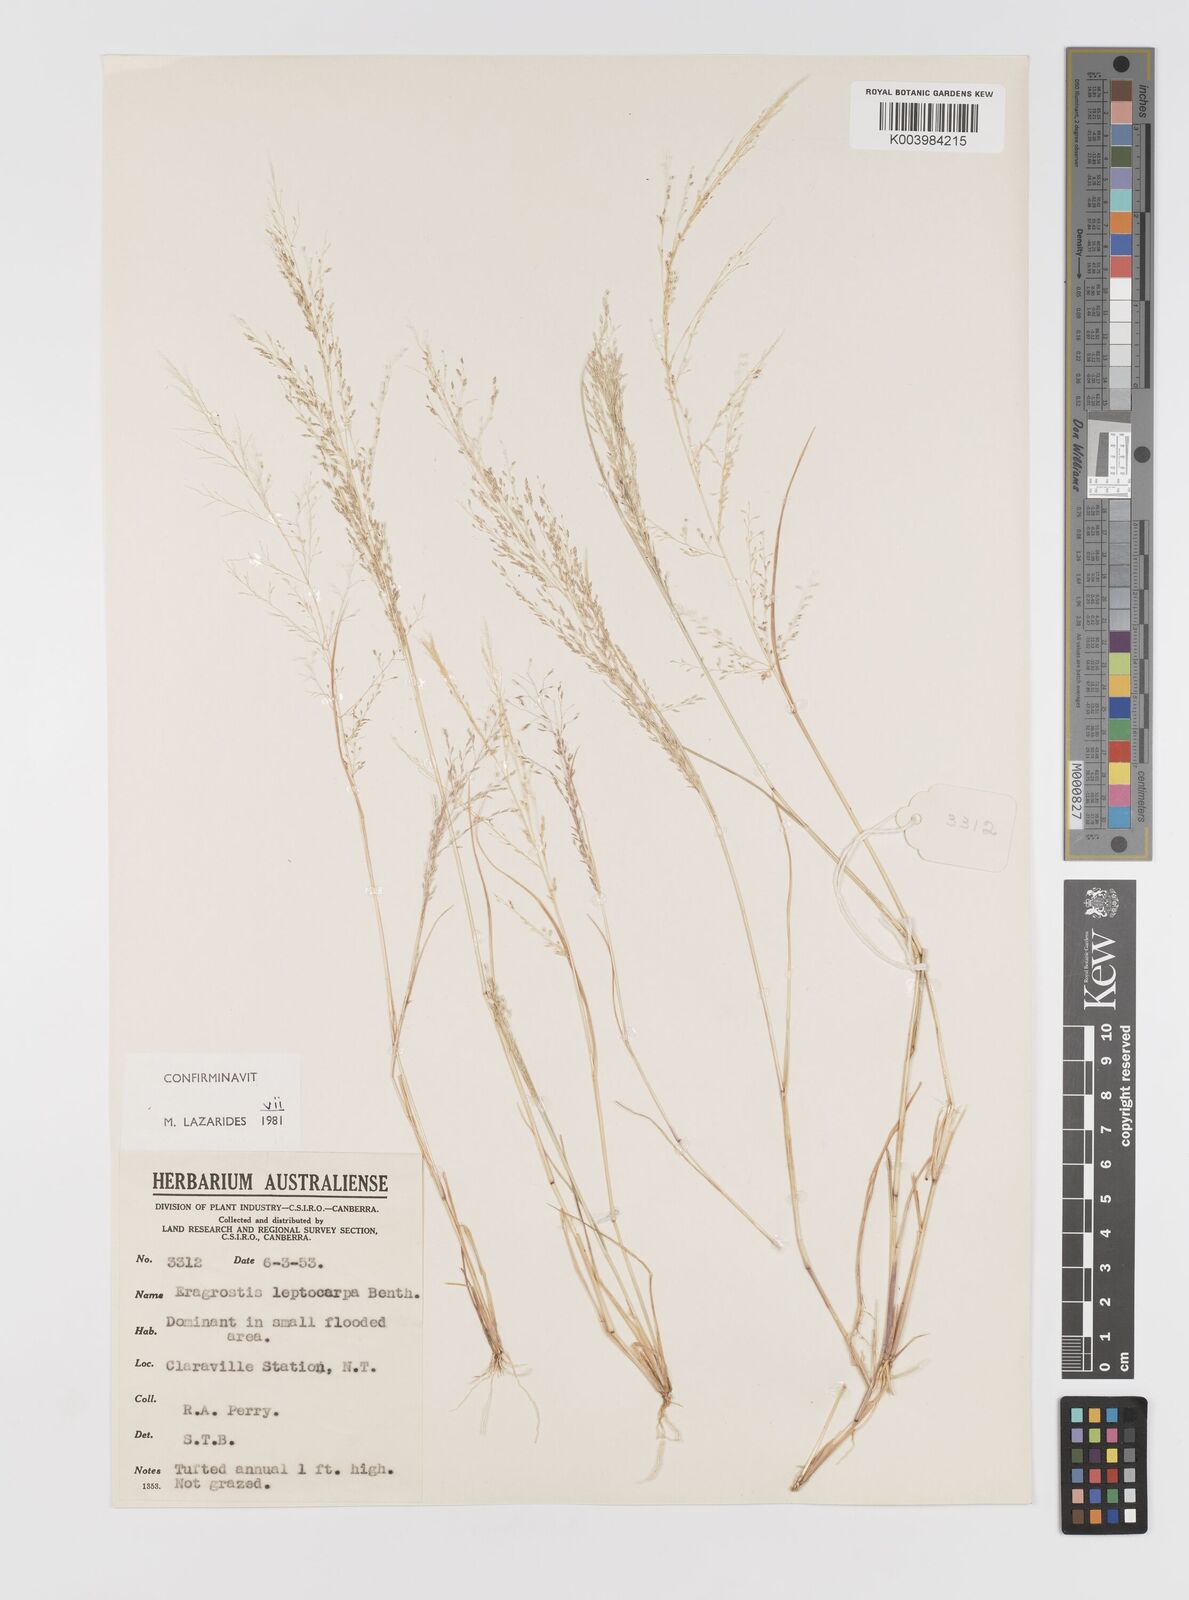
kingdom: Plantae
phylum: Tracheophyta
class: Liliopsida
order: Poales
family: Poaceae
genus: Eragrostis
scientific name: Eragrostis leptocarpa
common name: Drooping love grass
